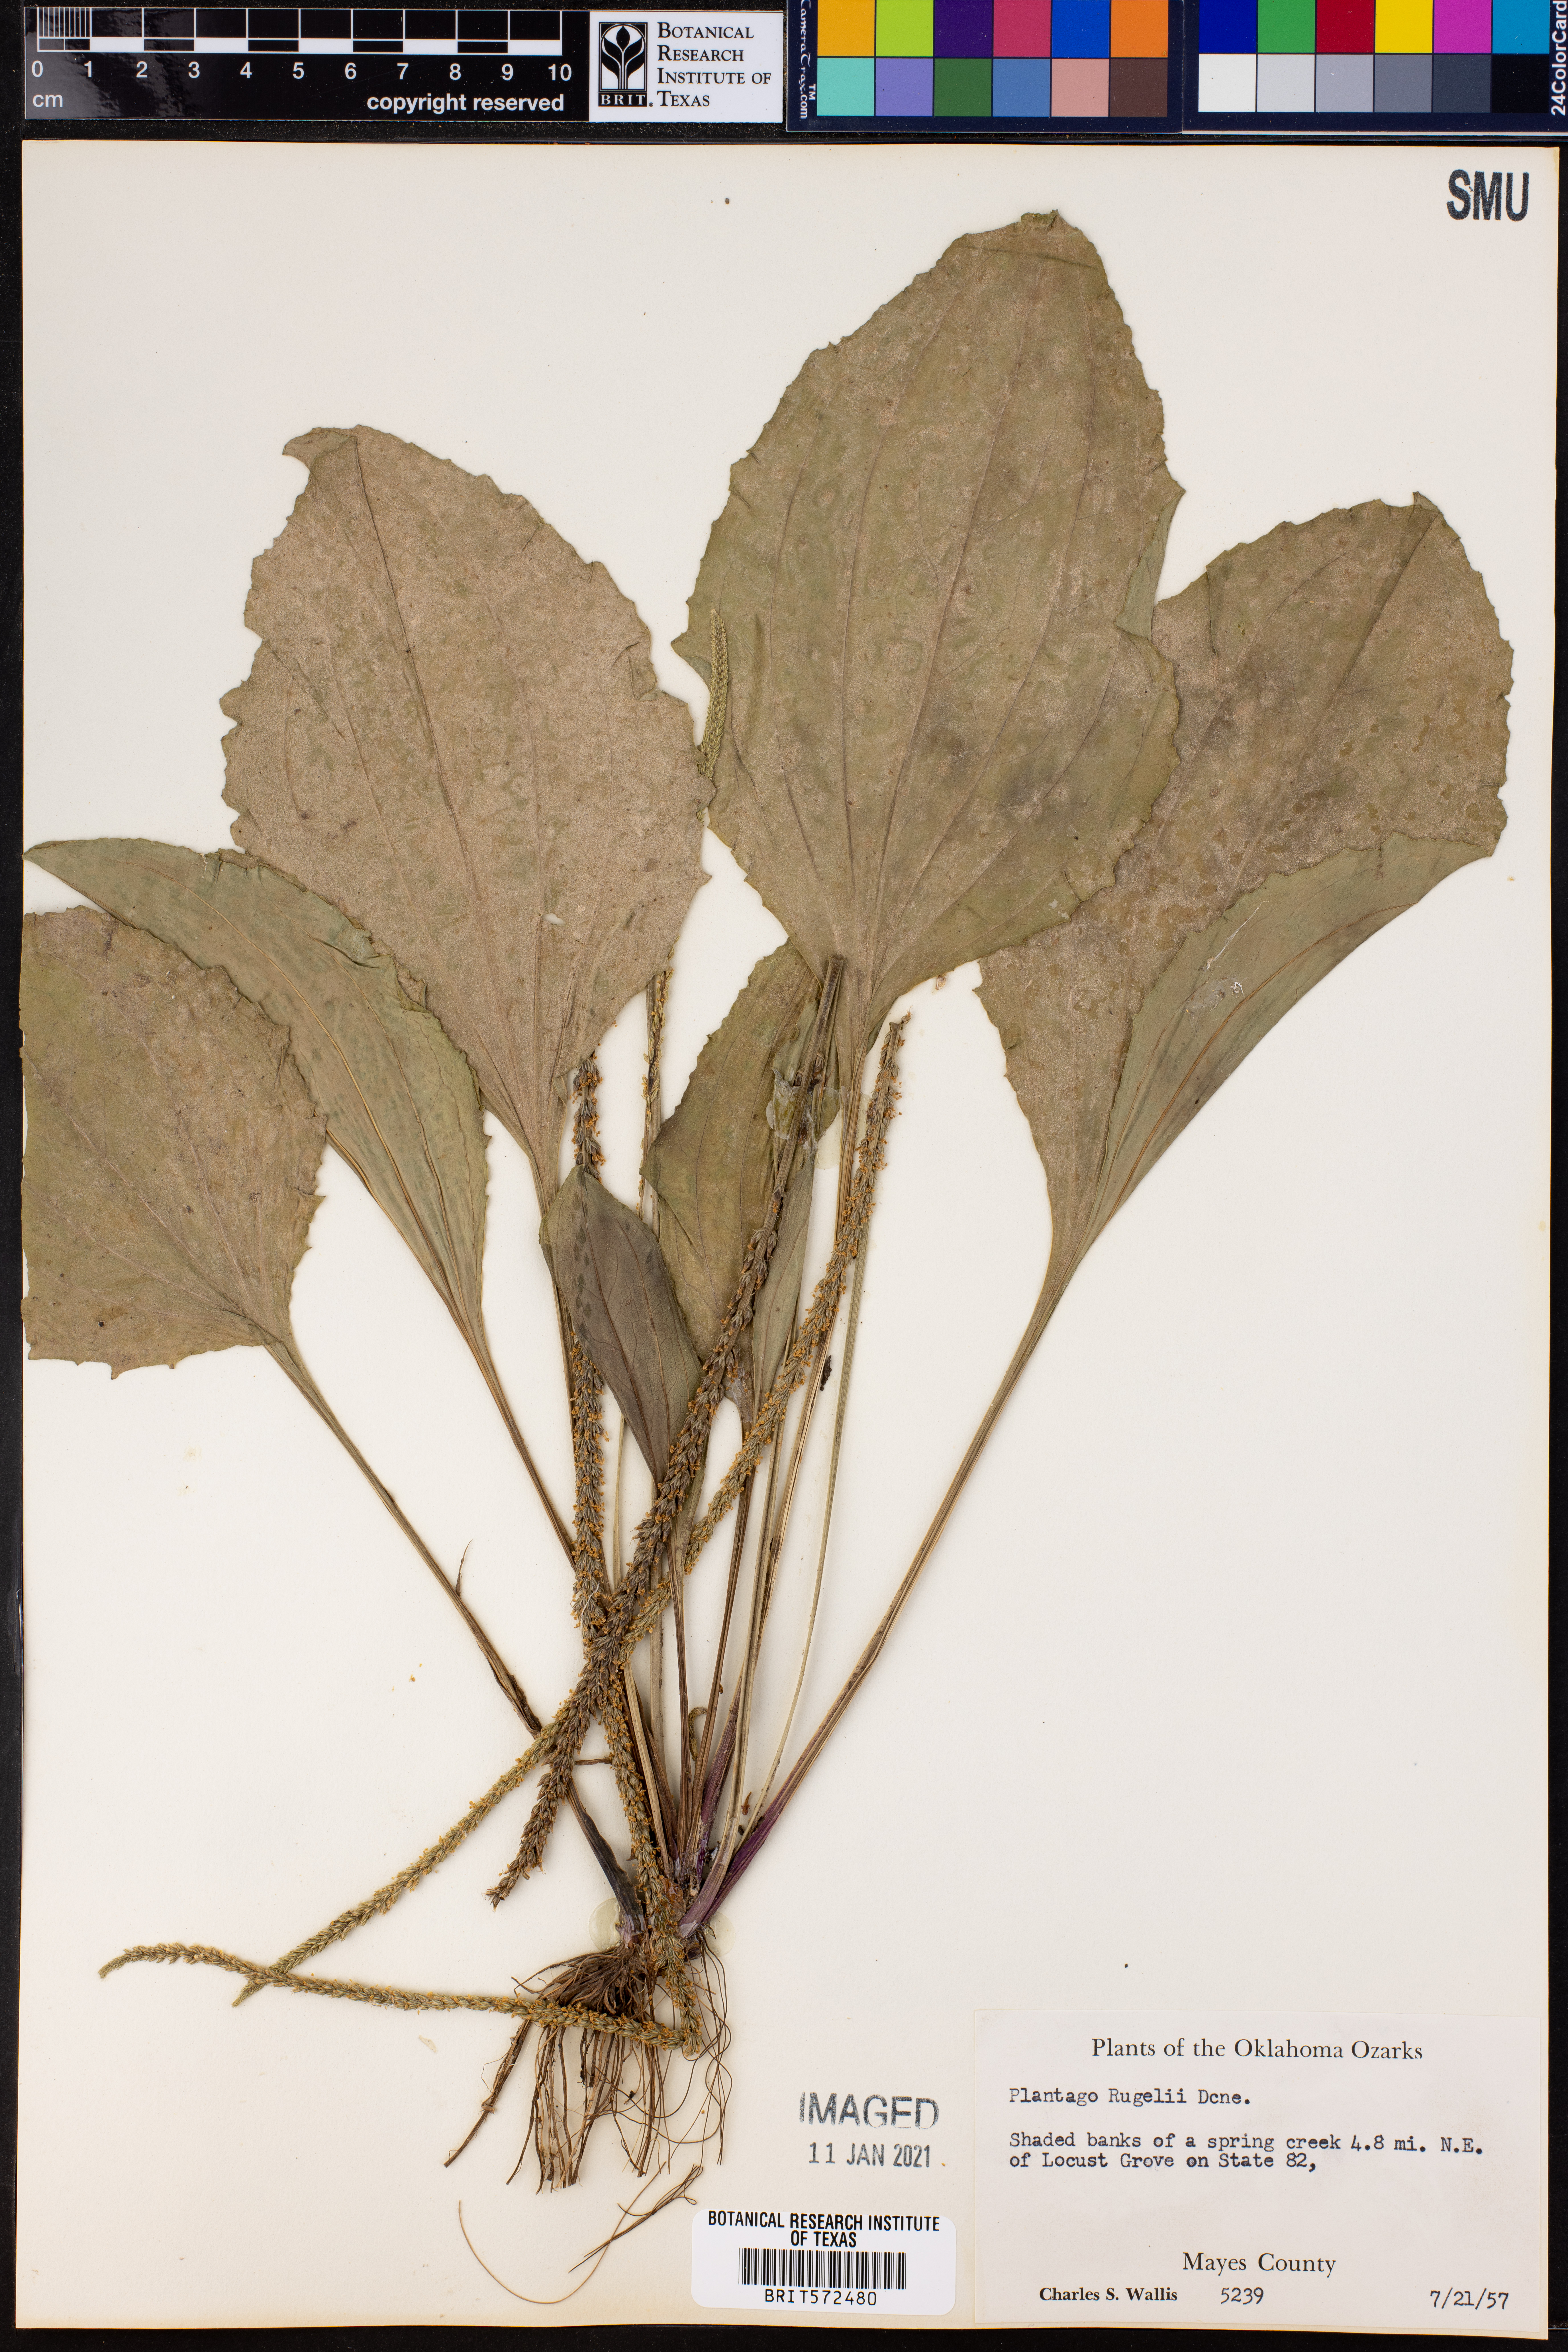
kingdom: Plantae
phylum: Tracheophyta
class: Magnoliopsida
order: Lamiales
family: Plantaginaceae
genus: Plantago
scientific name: Plantago rugelii
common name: American plantain
